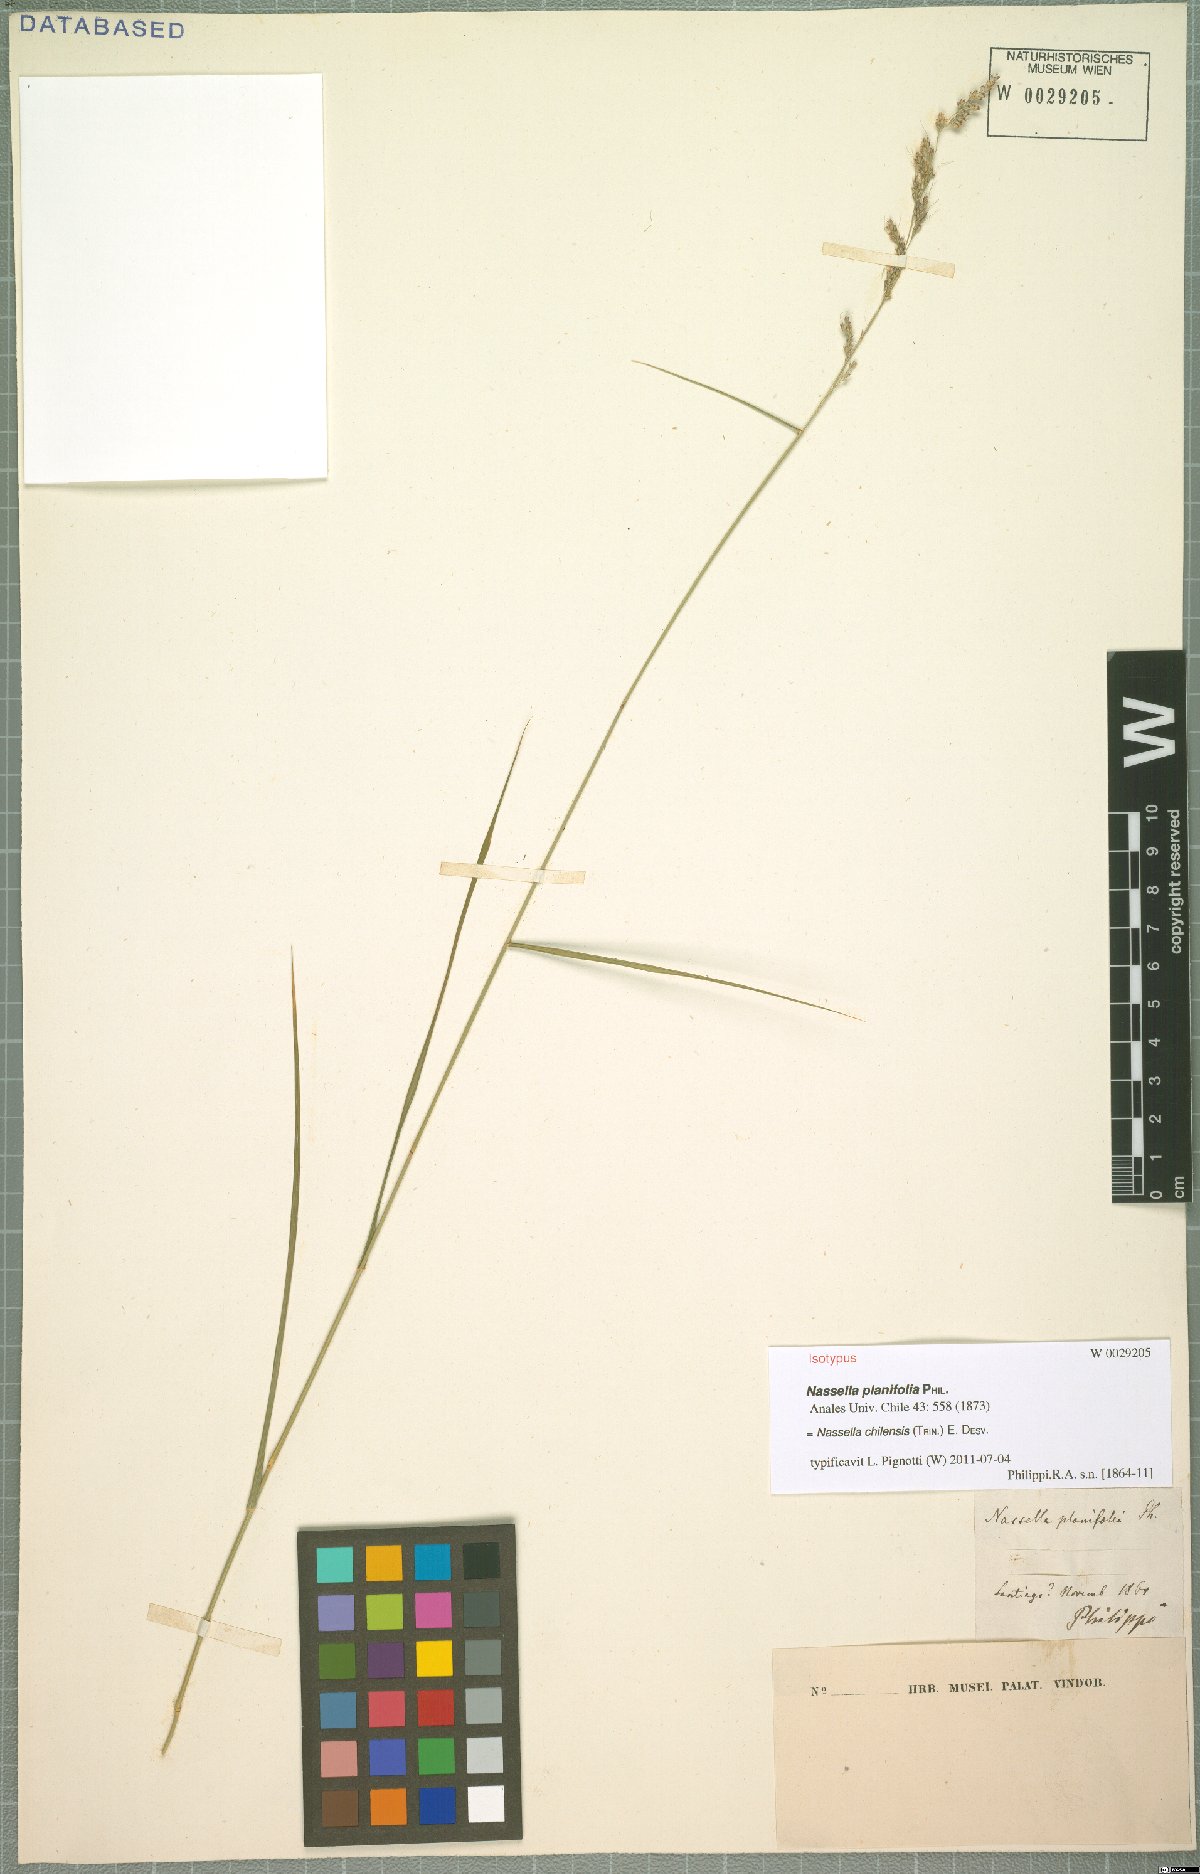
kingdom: Plantae
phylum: Tracheophyta
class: Liliopsida
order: Poales
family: Poaceae
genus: Nassella
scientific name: Nassella chilensis
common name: Chilean needlegrass
